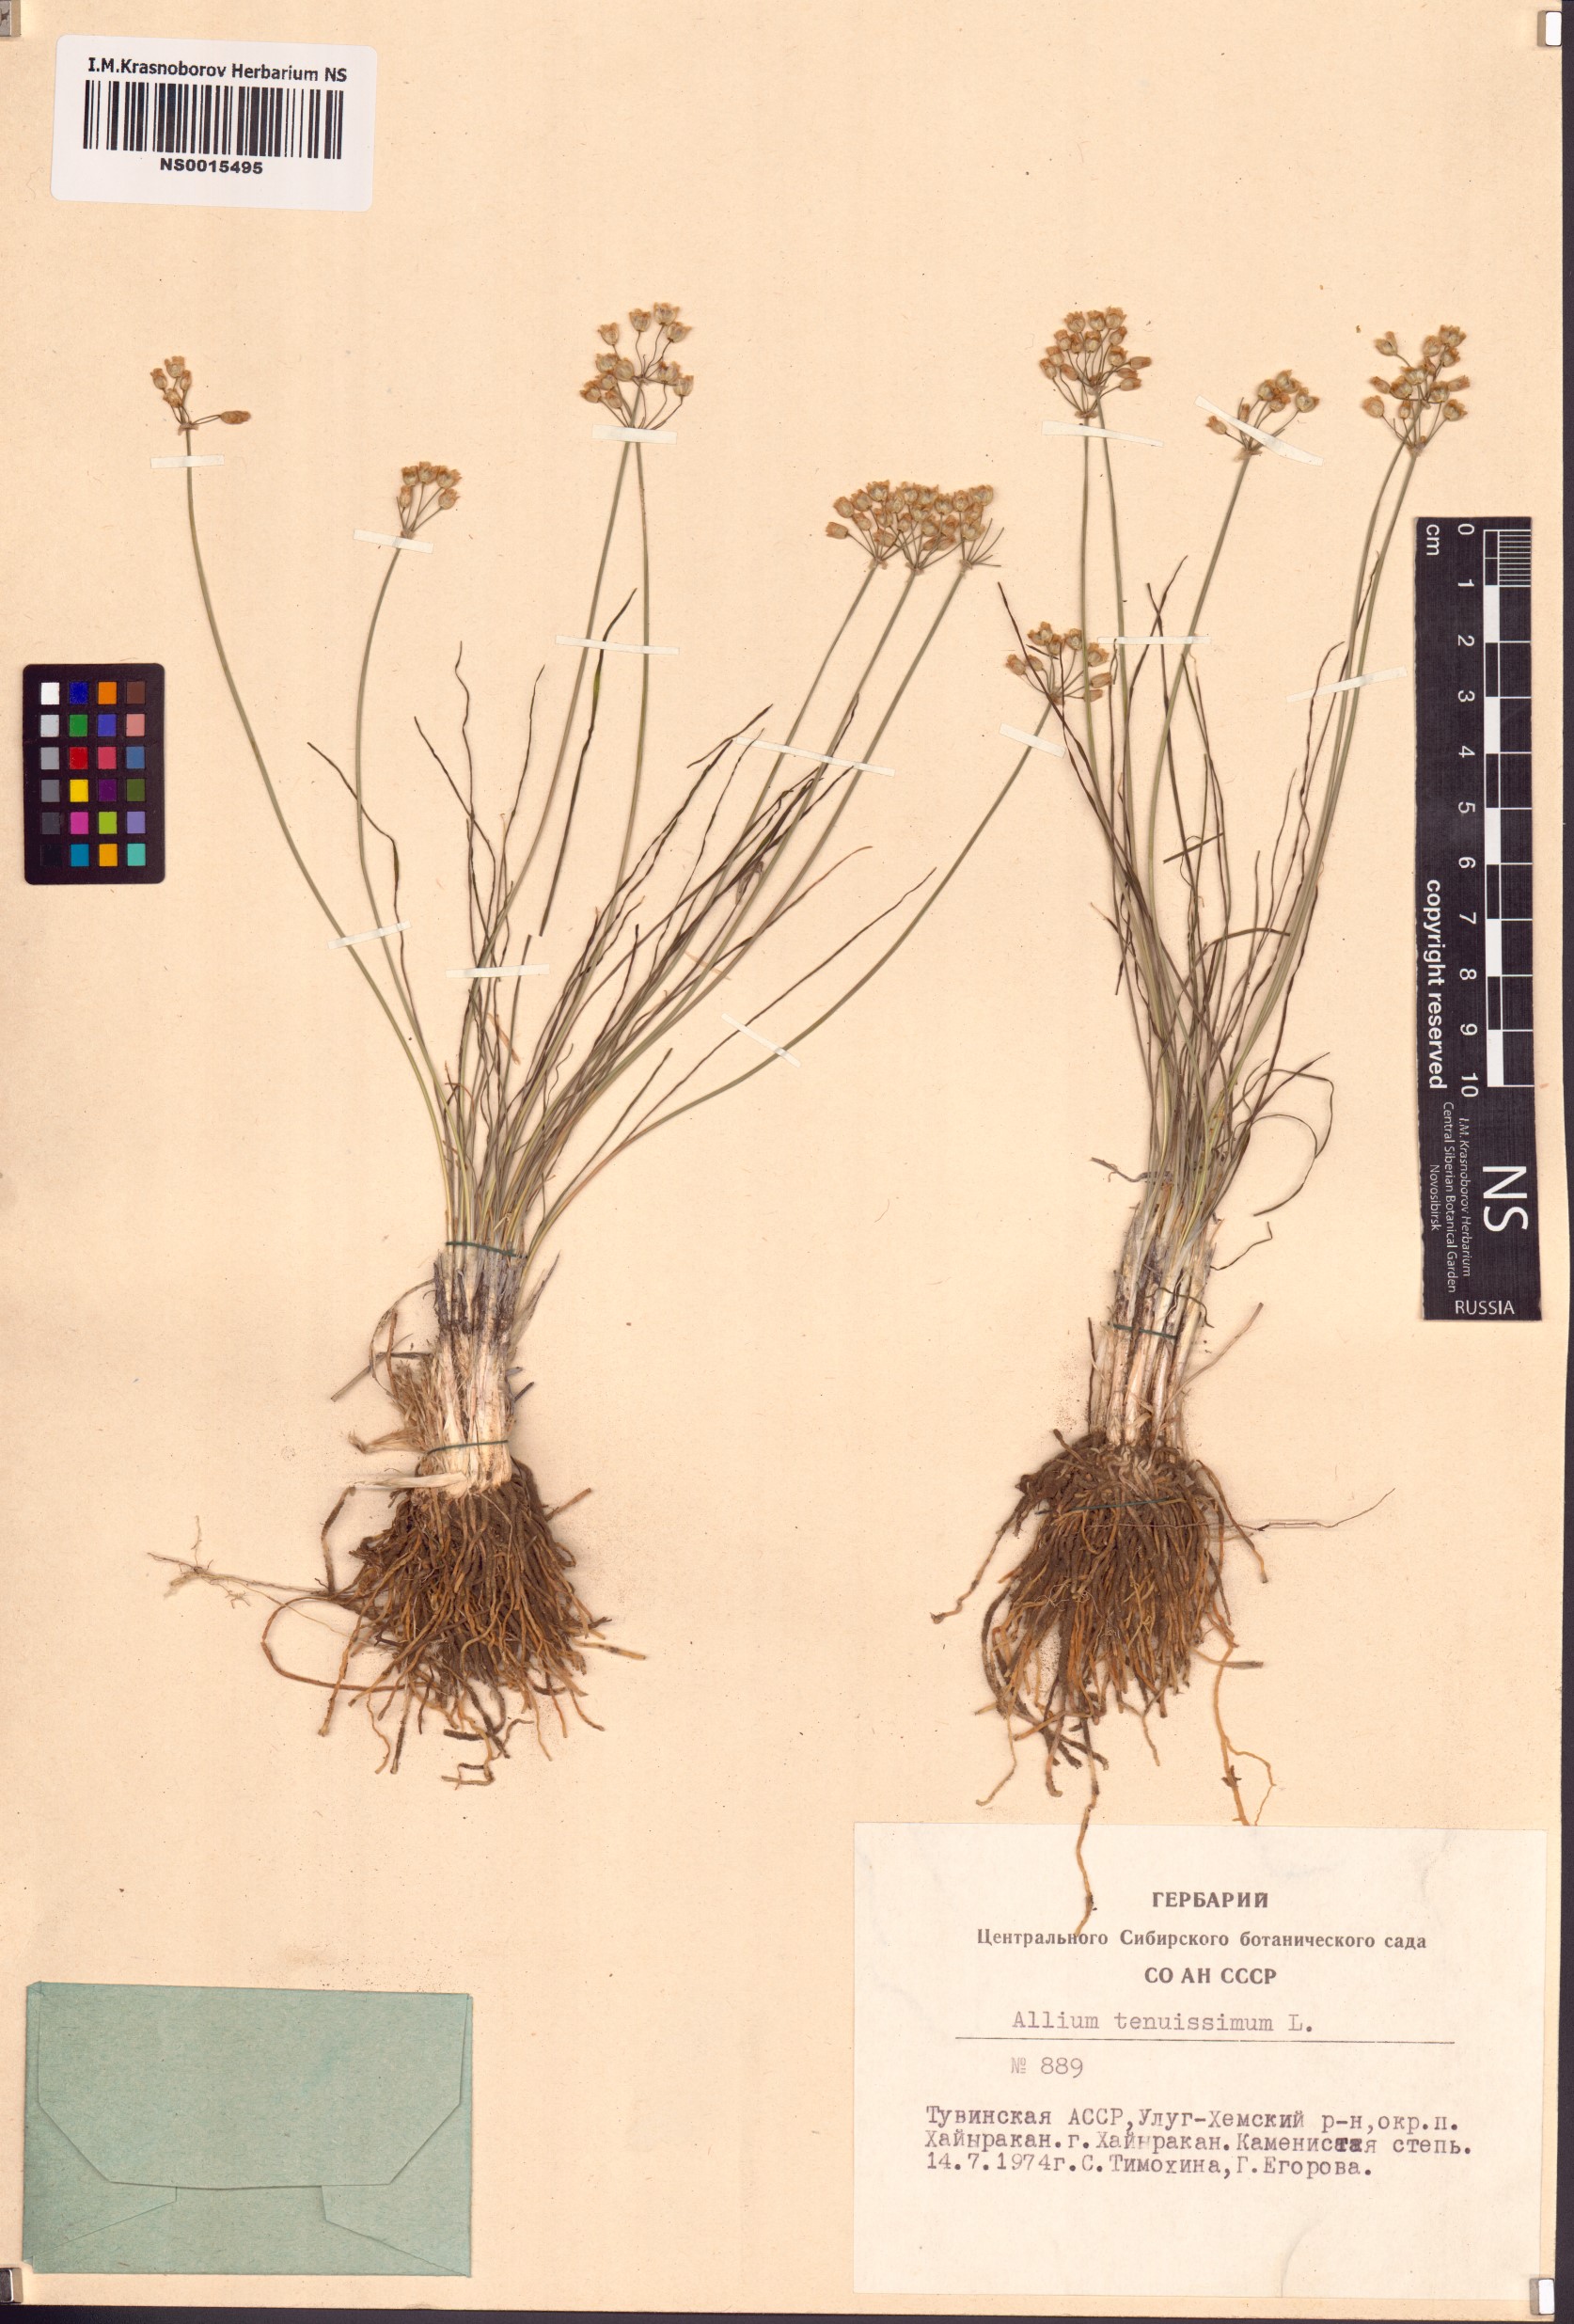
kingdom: Plantae
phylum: Tracheophyta
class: Liliopsida
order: Asparagales
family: Amaryllidaceae
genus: Allium
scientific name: Allium tenuissimum
